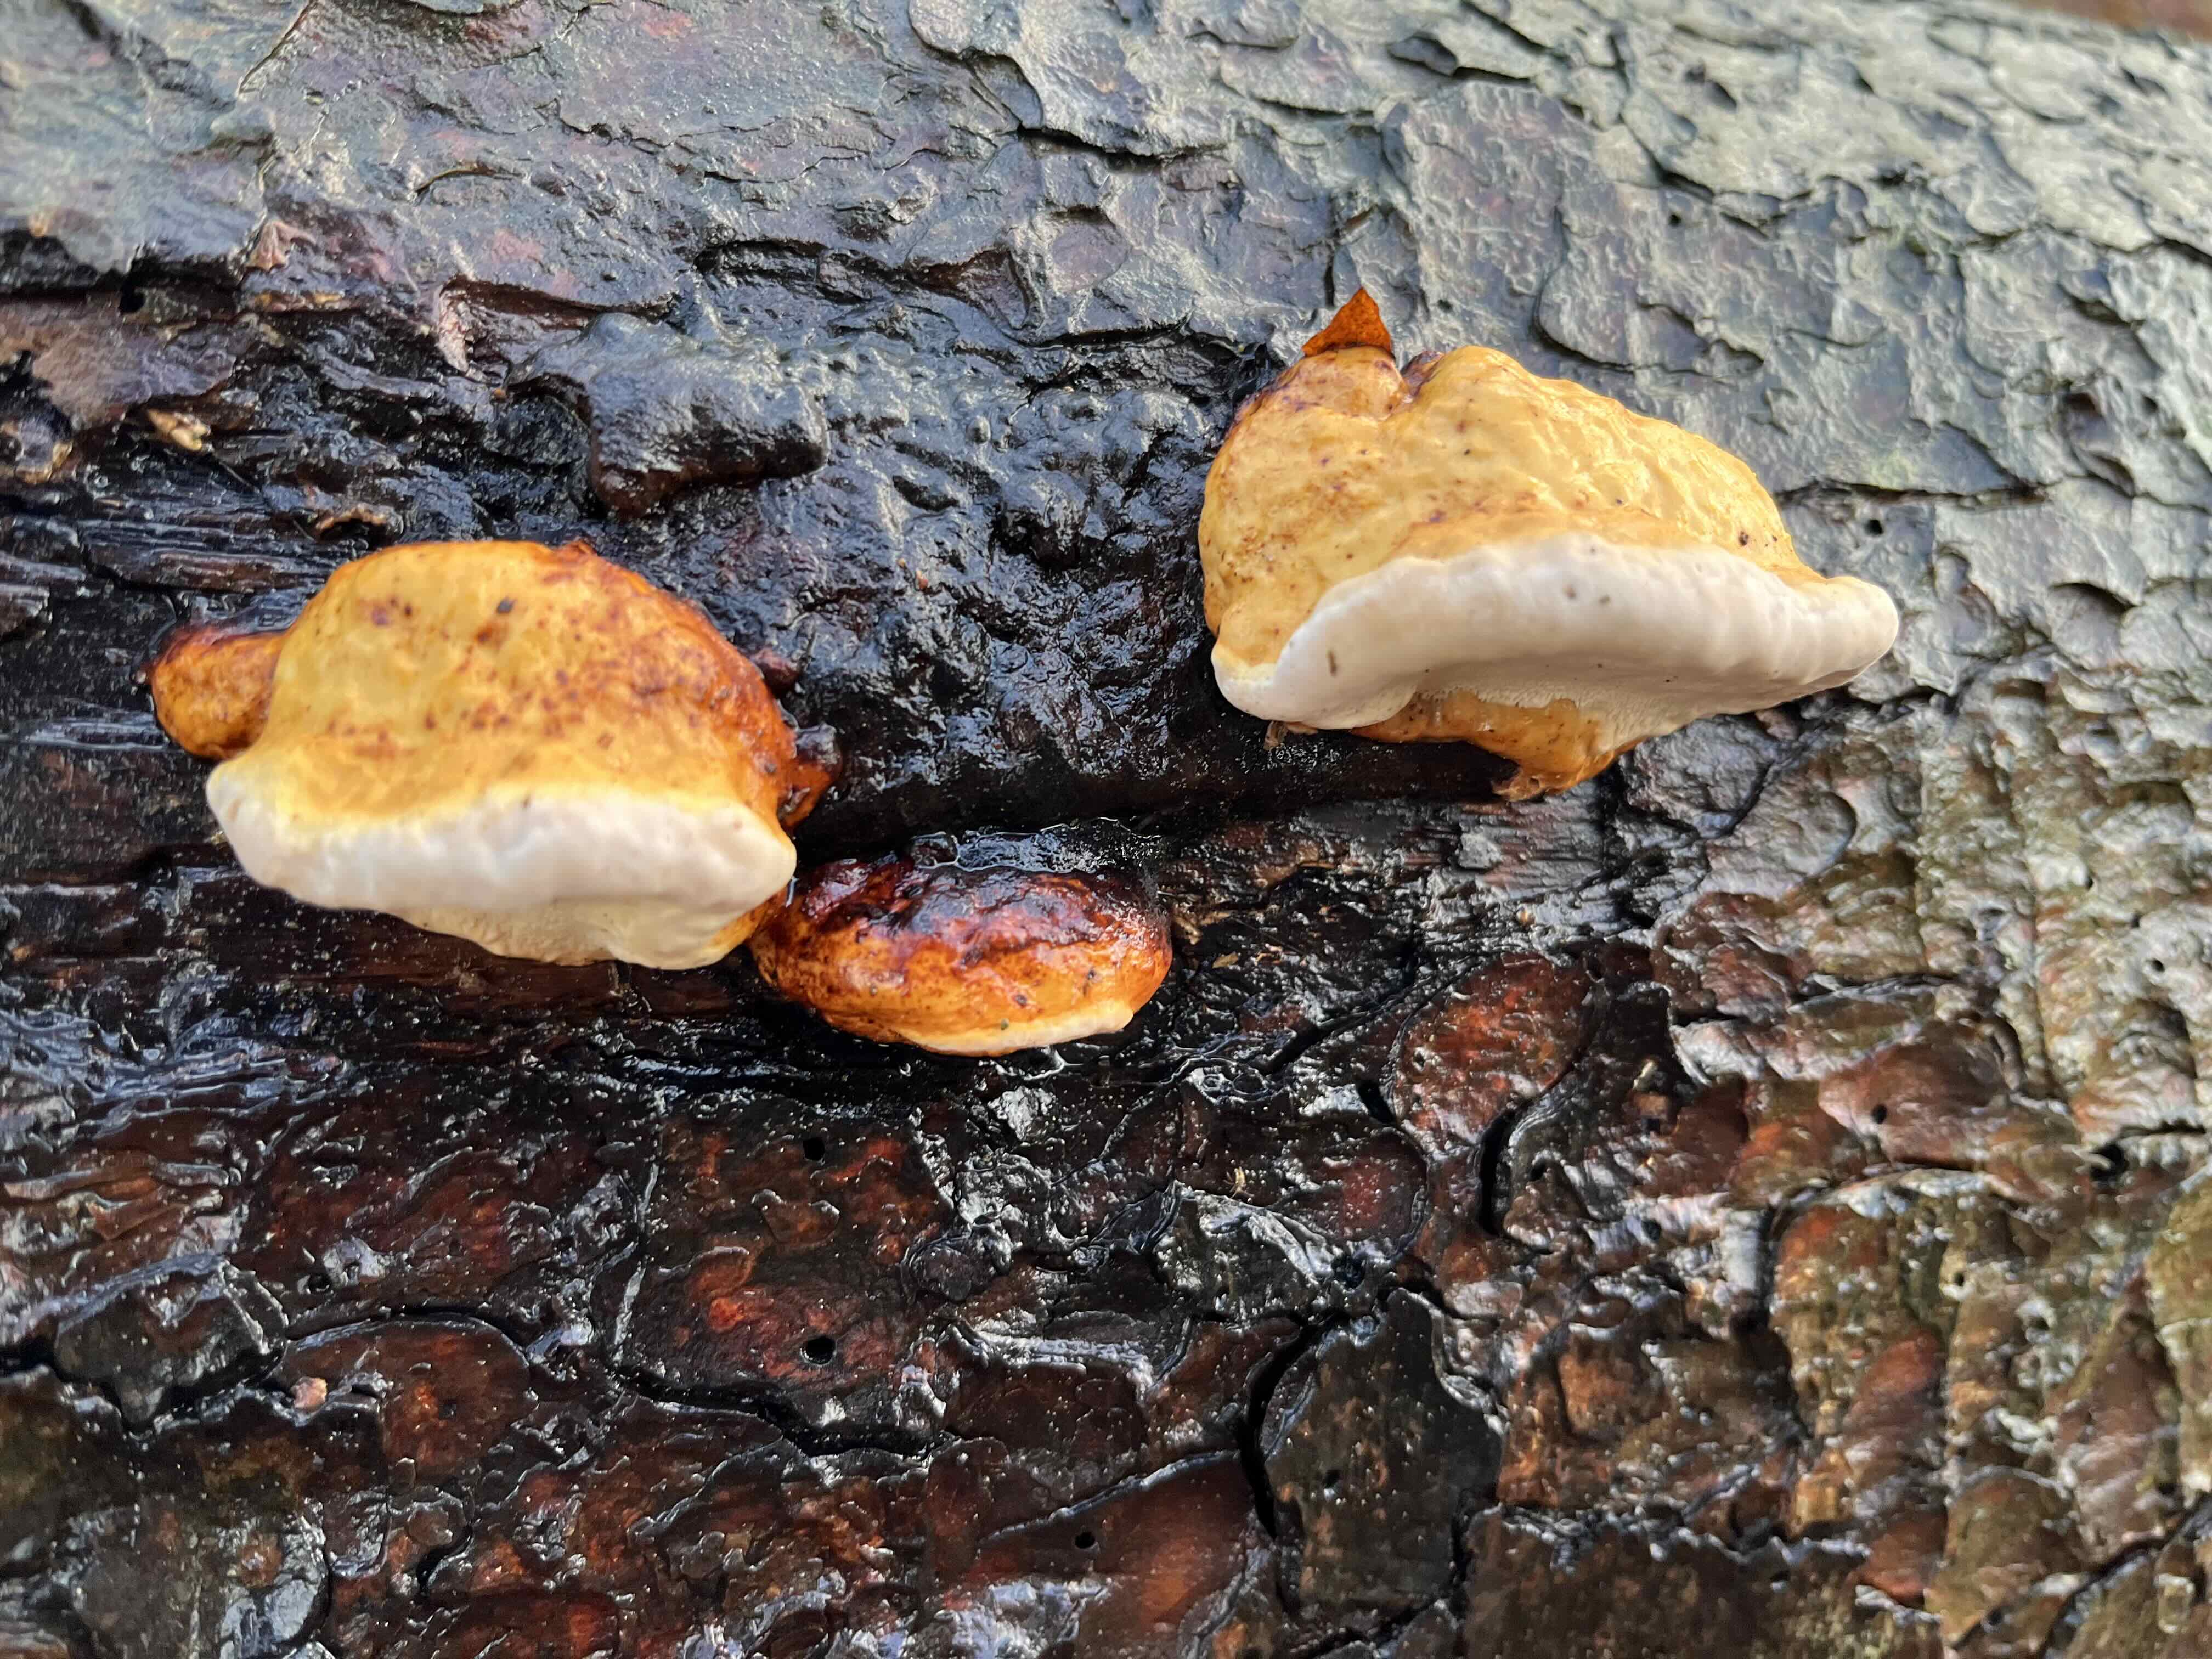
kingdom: Fungi
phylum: Basidiomycota
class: Agaricomycetes
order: Polyporales
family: Fomitopsidaceae
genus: Fomitopsis
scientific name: Fomitopsis pinicola
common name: randbæltet hovporesvamp
